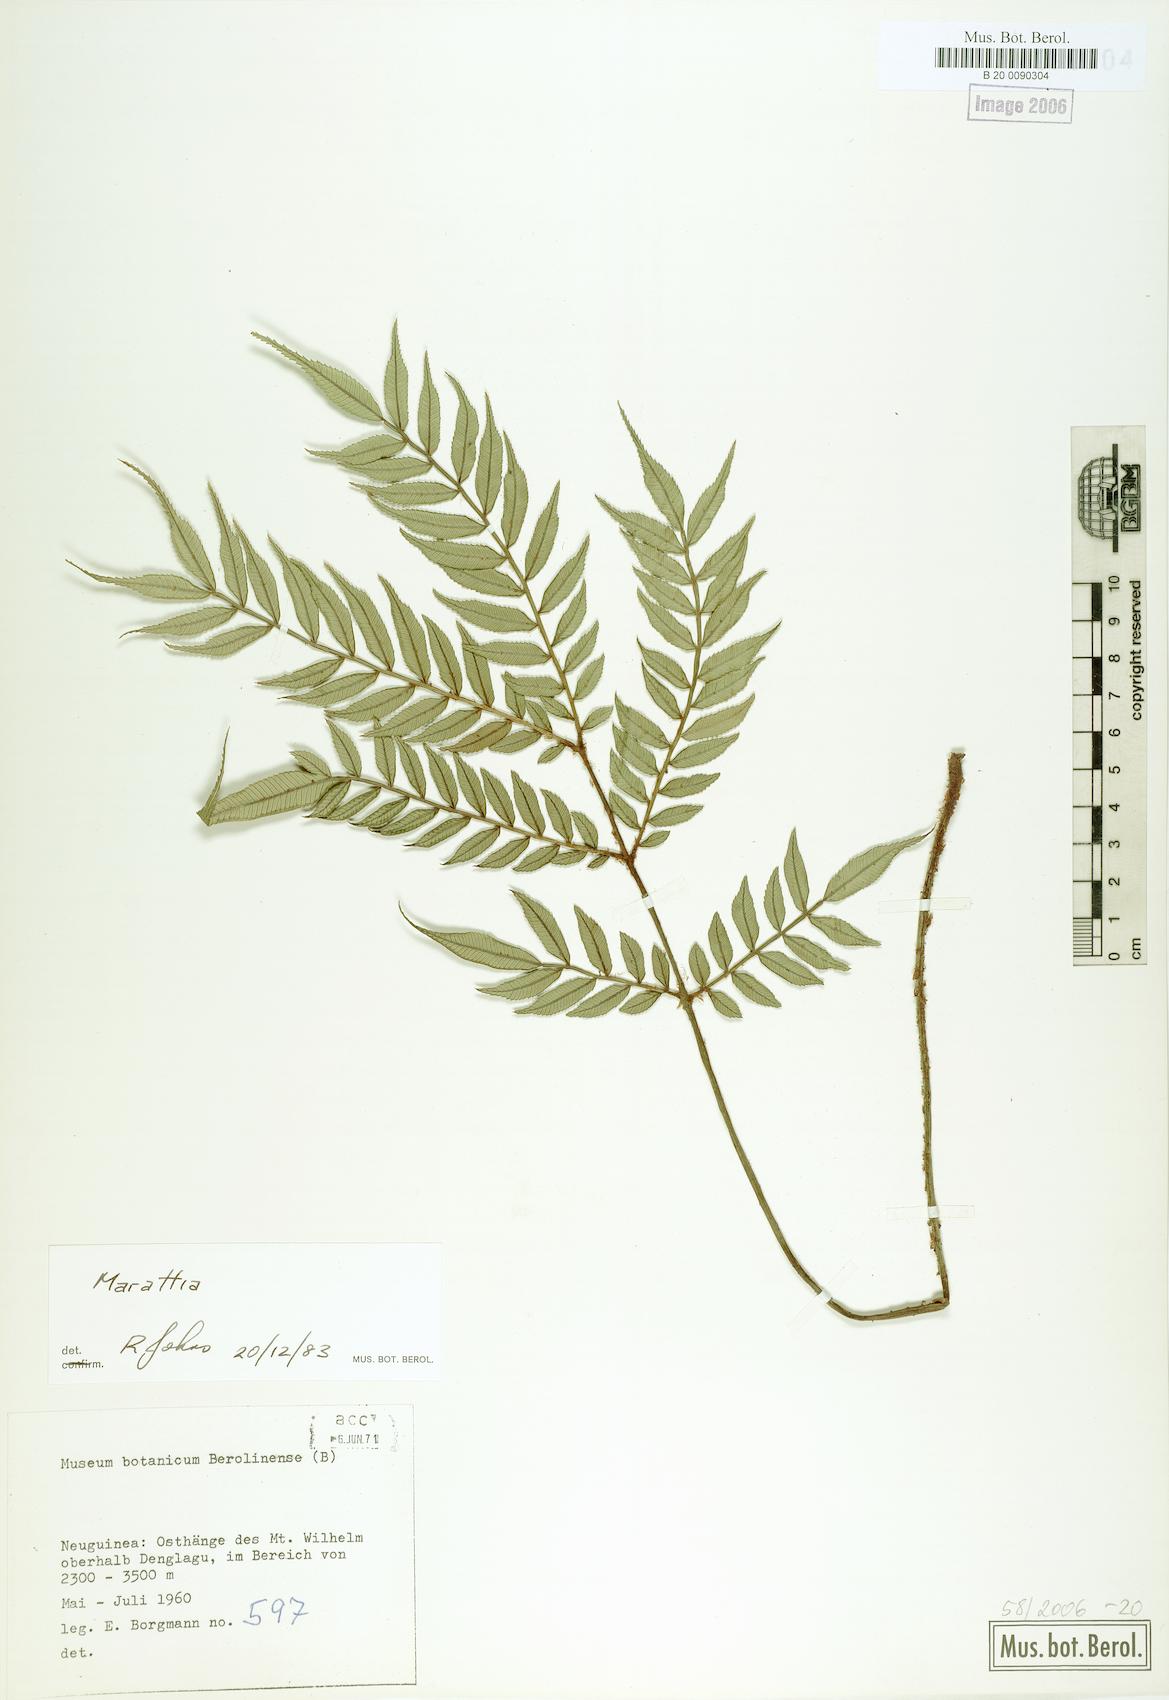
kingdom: Plantae
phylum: Tracheophyta
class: Polypodiopsida
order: Marattiales
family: Marattiaceae
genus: Marattia
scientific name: Marattia
